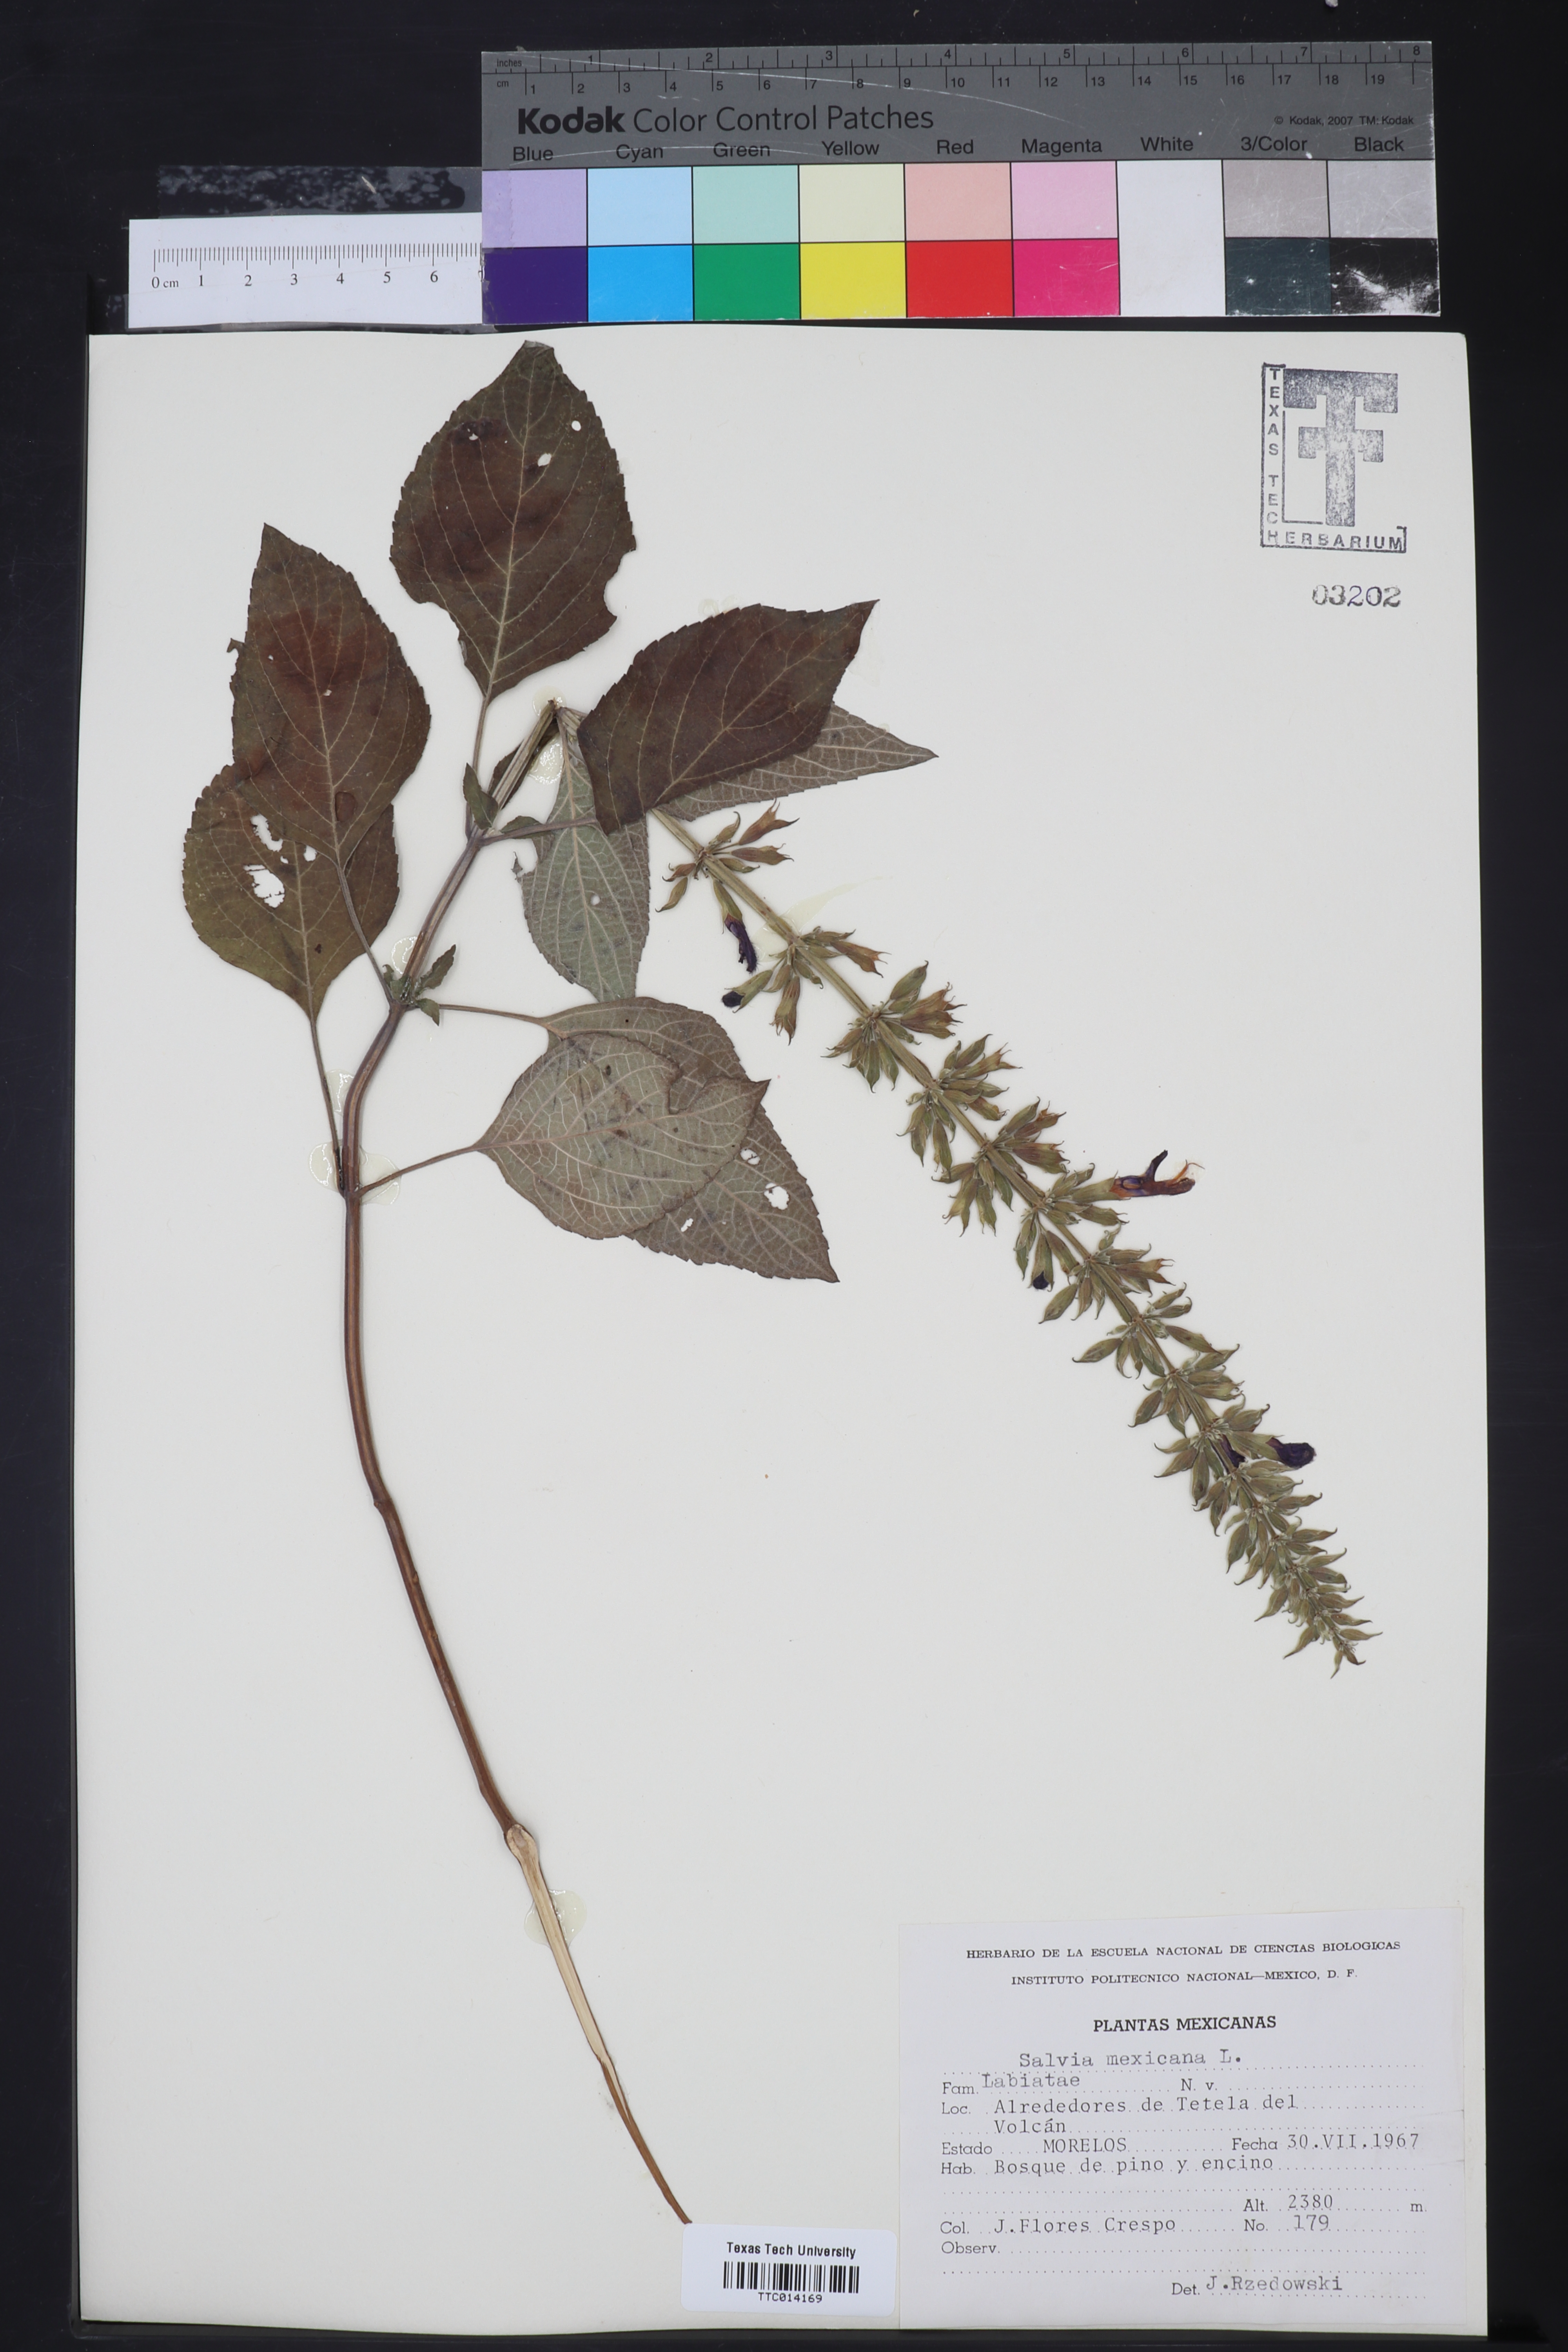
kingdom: Plantae
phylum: Tracheophyta
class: Magnoliopsida
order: Lamiales
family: Lamiaceae
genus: Salvia
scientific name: Salvia azurea
